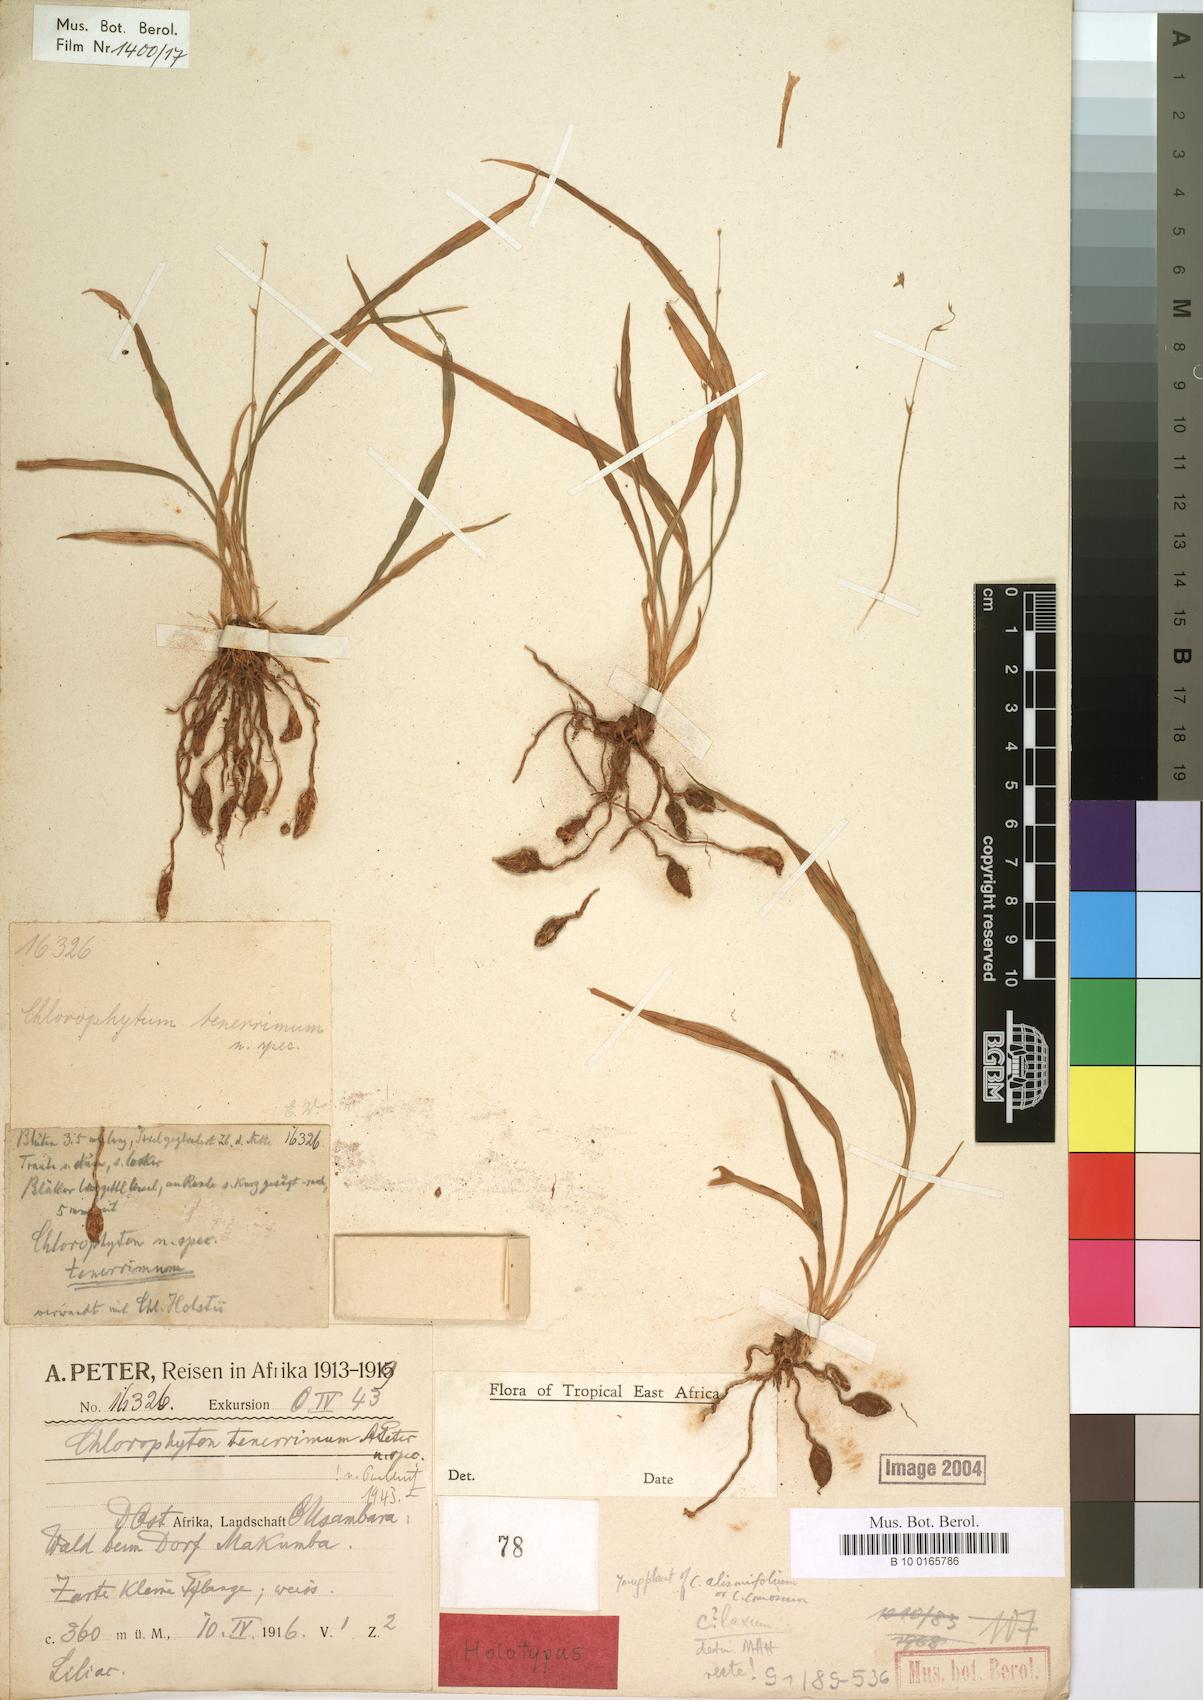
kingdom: Plantae
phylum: Tracheophyta
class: Liliopsida
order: Asparagales
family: Asparagaceae
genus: Chlorophytum
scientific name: Chlorophytum tenerrimum
